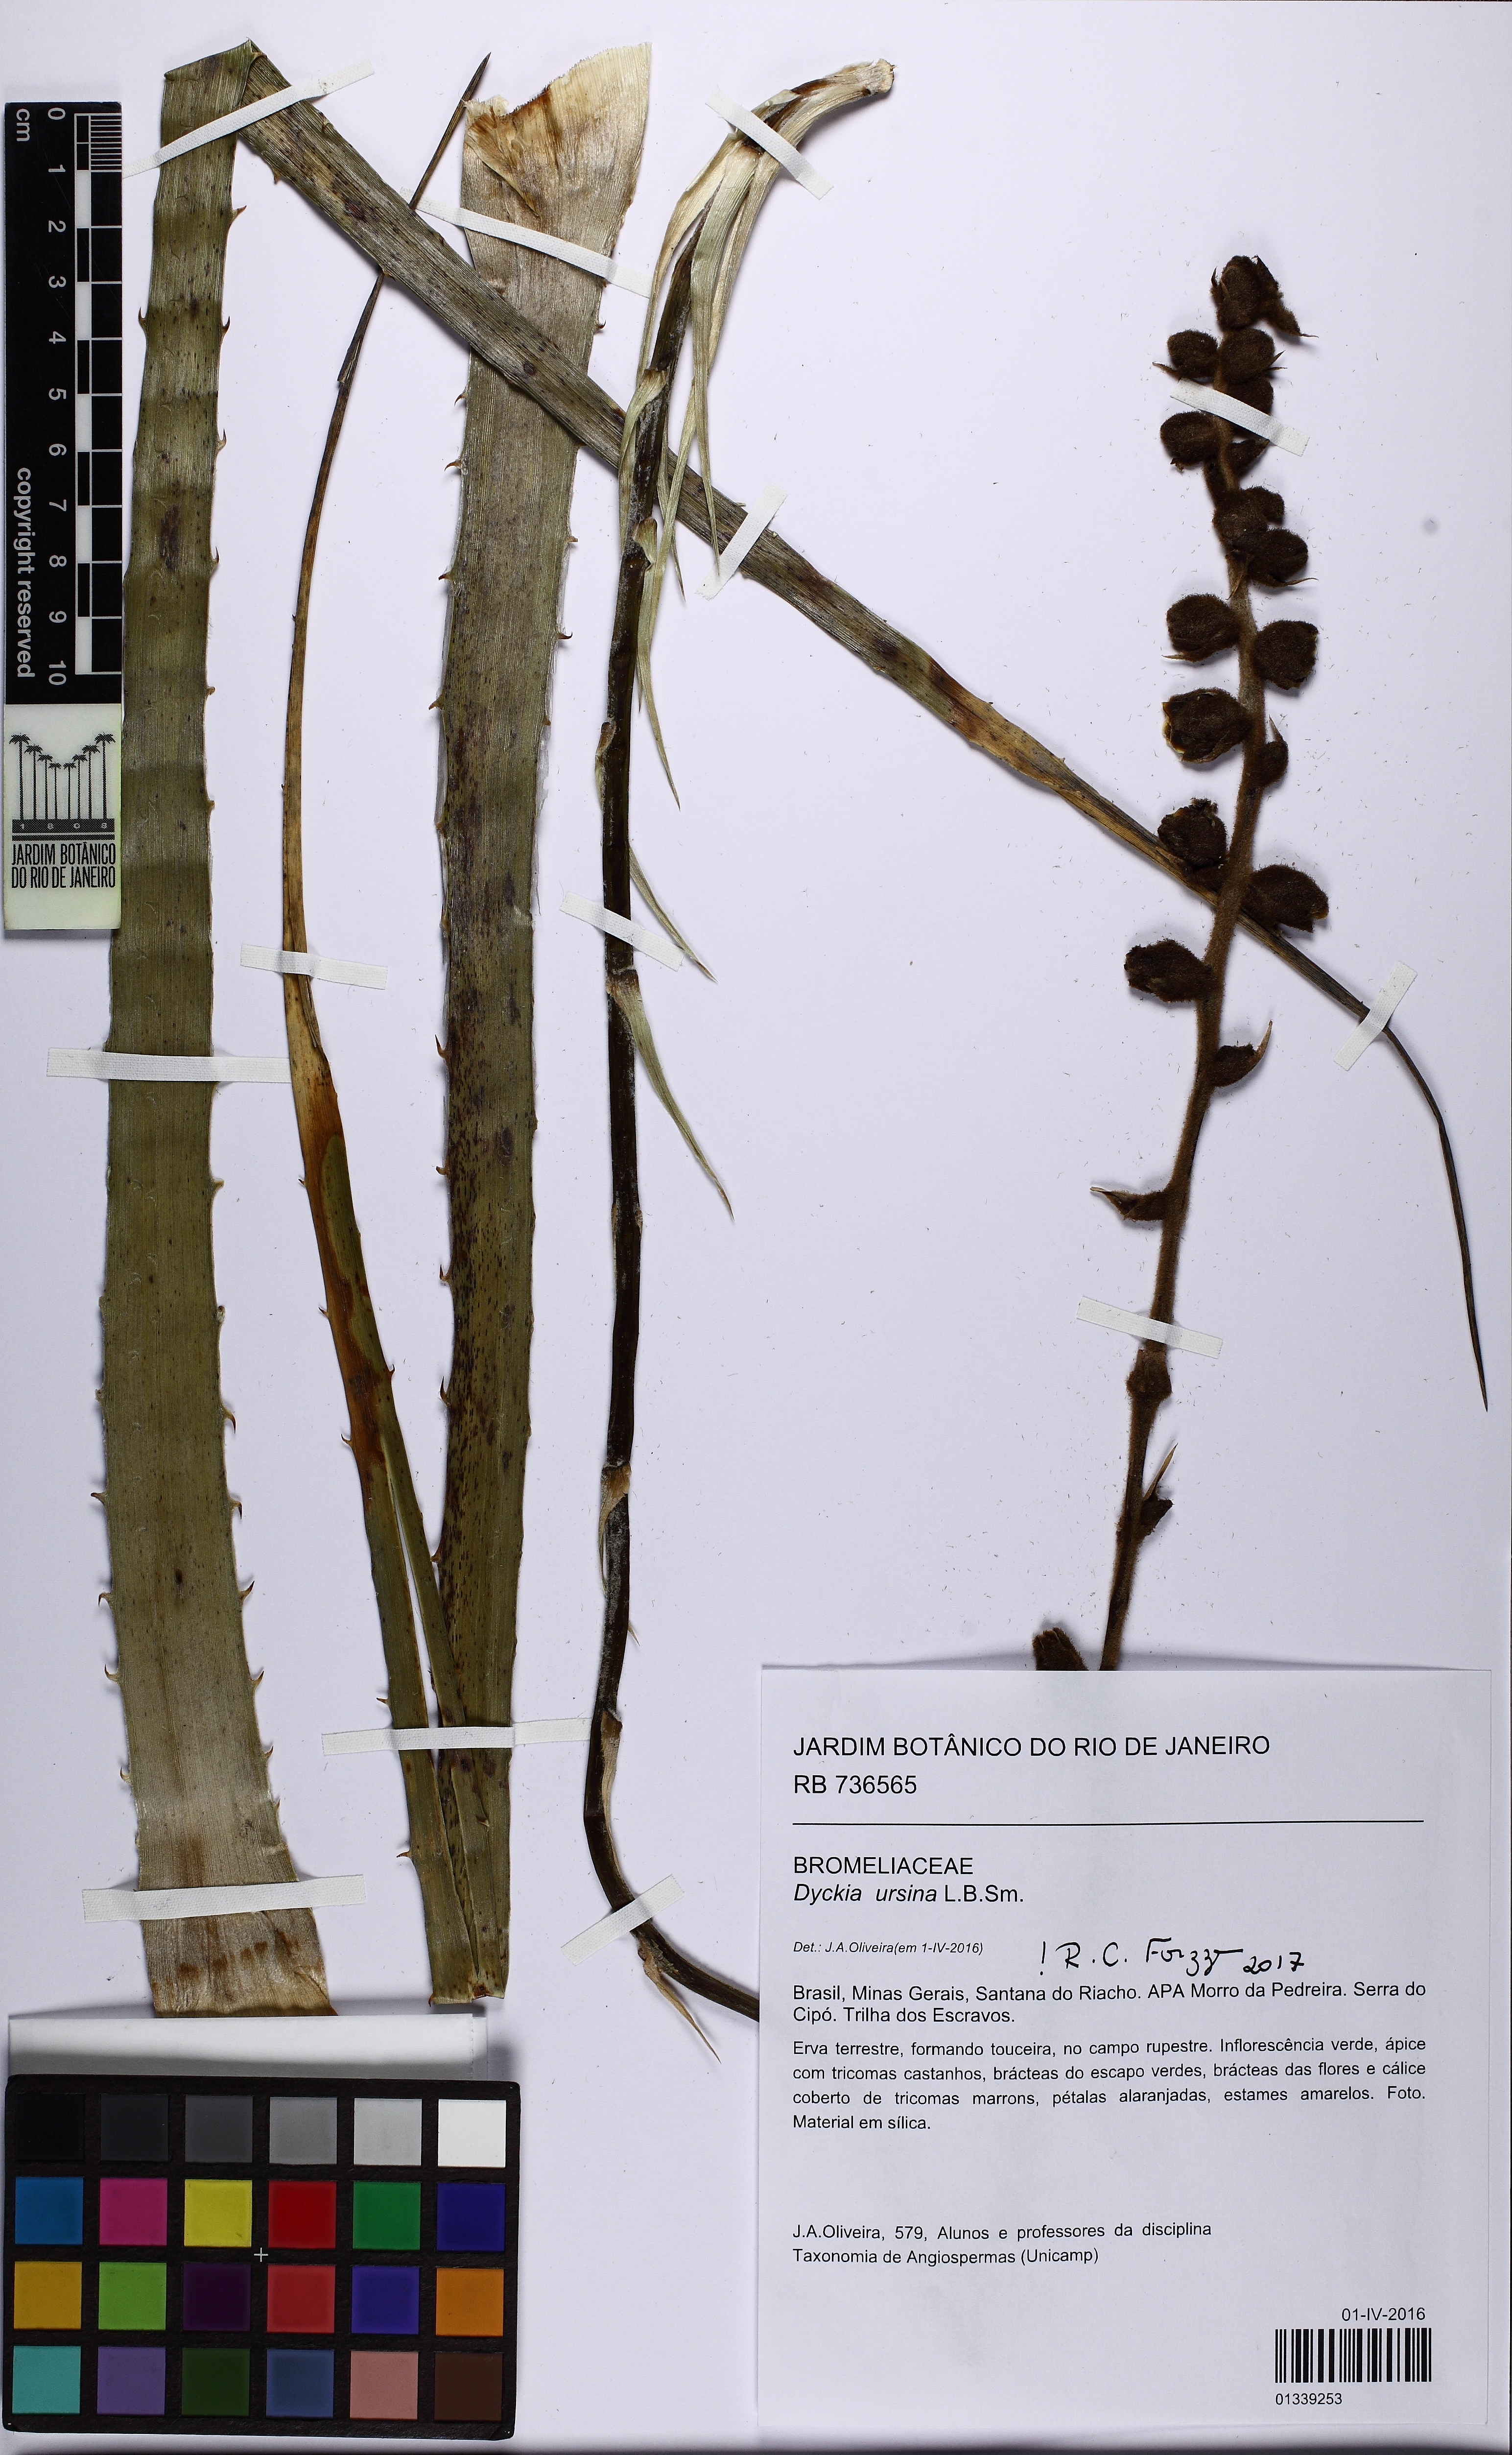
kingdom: Plantae
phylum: Tracheophyta
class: Liliopsida
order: Poales
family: Bromeliaceae
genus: Dyckia
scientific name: Dyckia ursina
